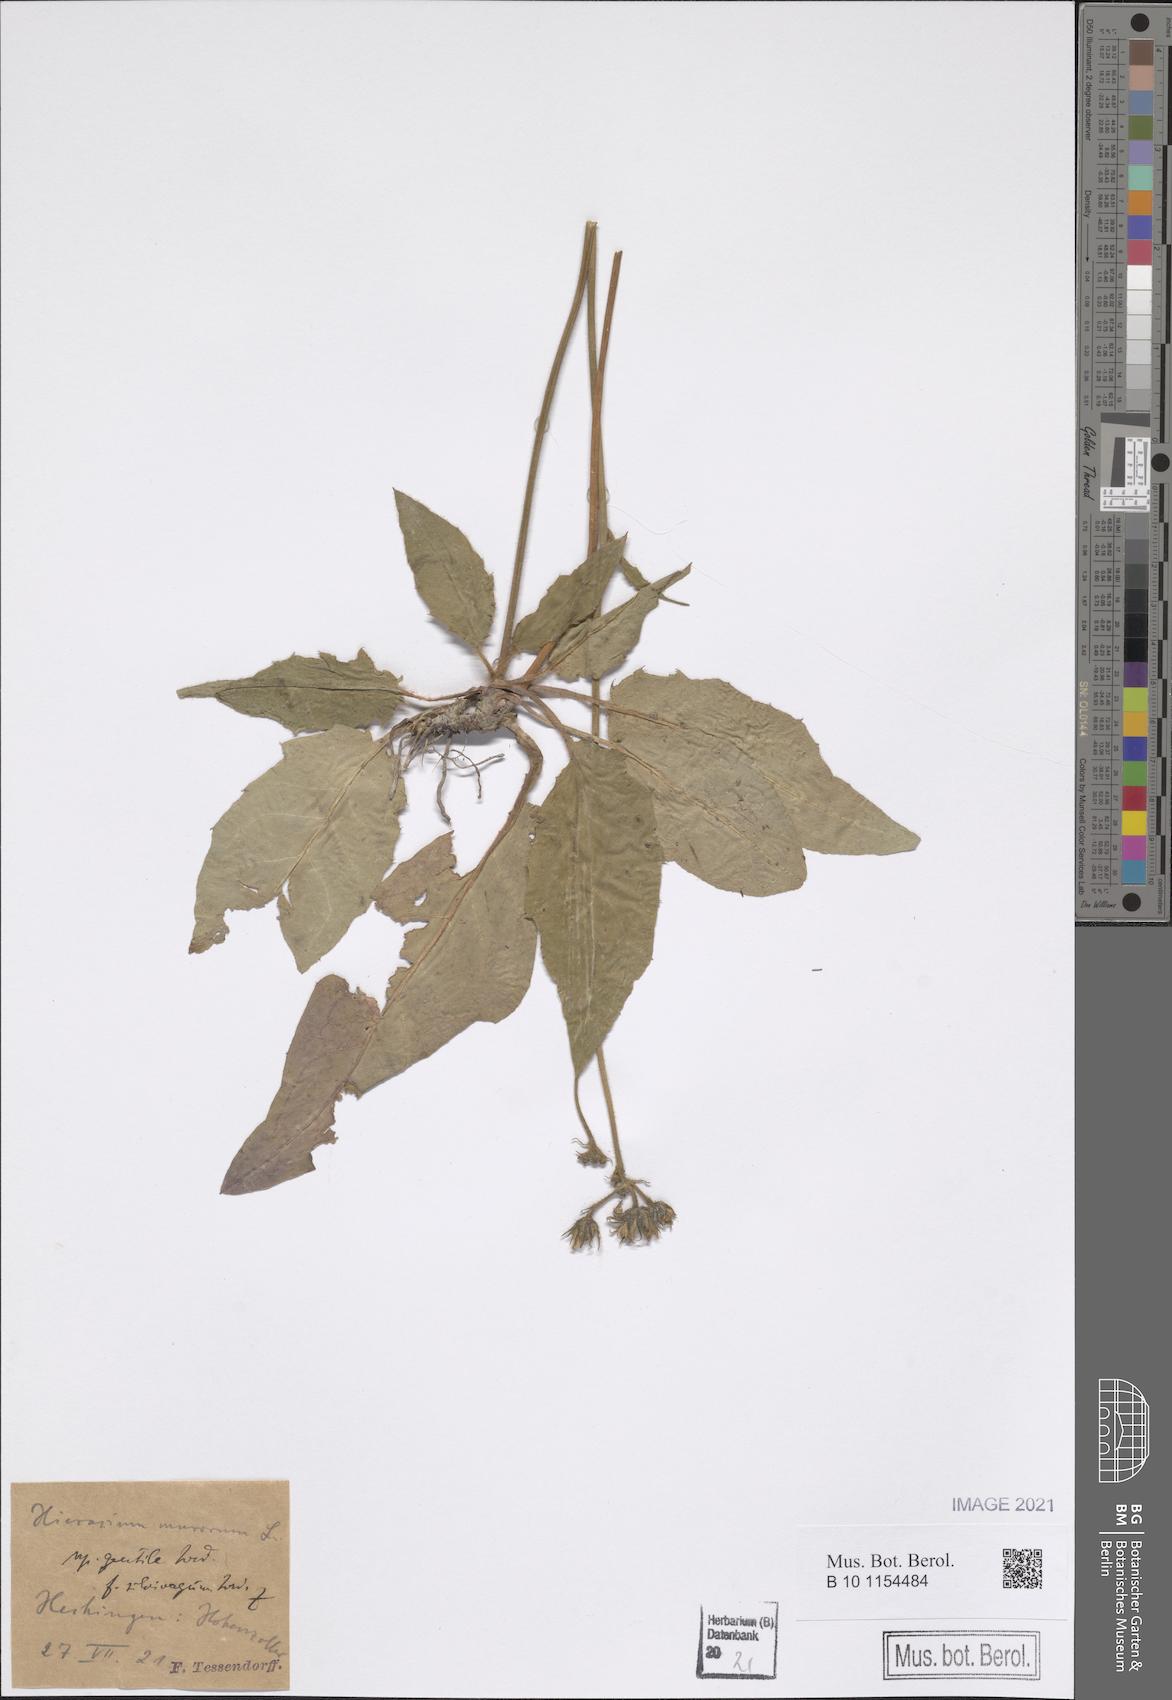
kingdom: Plantae
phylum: Tracheophyta
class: Magnoliopsida
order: Asterales
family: Asteraceae
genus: Hieracium
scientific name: Hieracium murorum
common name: Wall hawkweed
